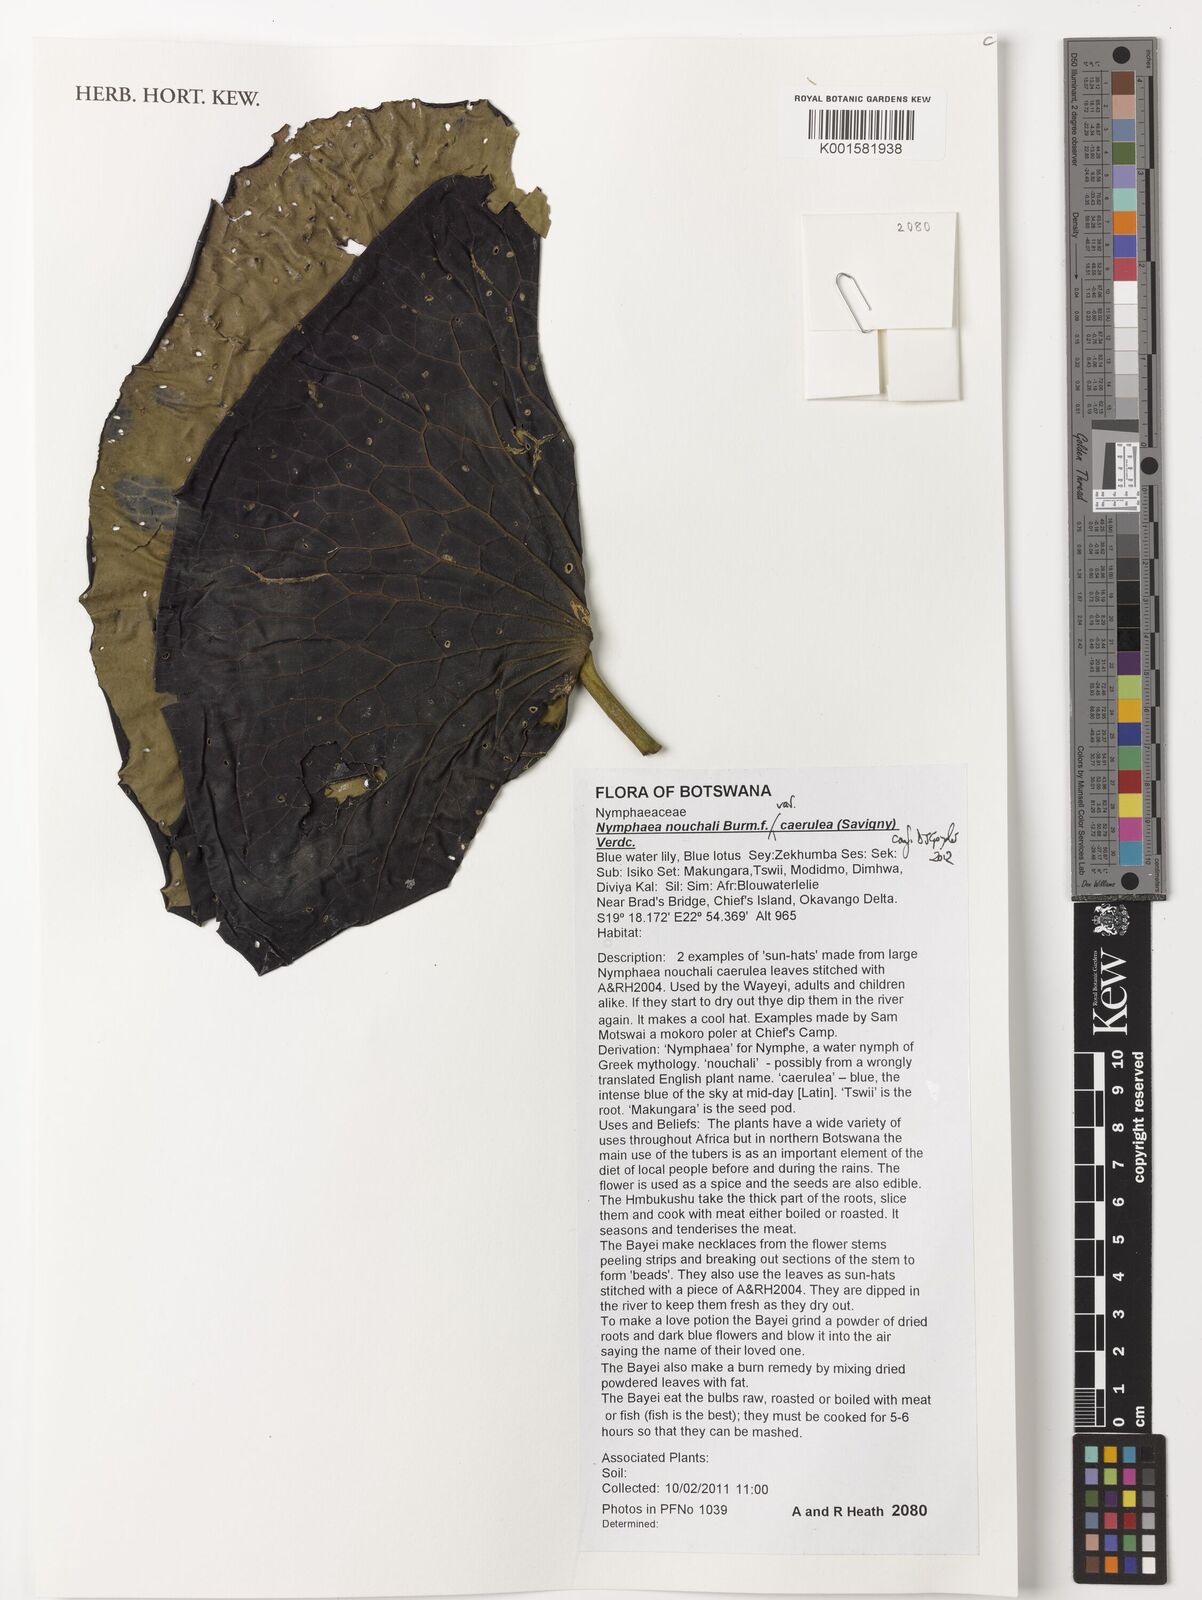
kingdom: Plantae
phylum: Tracheophyta
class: Magnoliopsida
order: Nymphaeales
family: Nymphaeaceae
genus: Nymphaea
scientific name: Nymphaea nouchali
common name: Blue lotus
